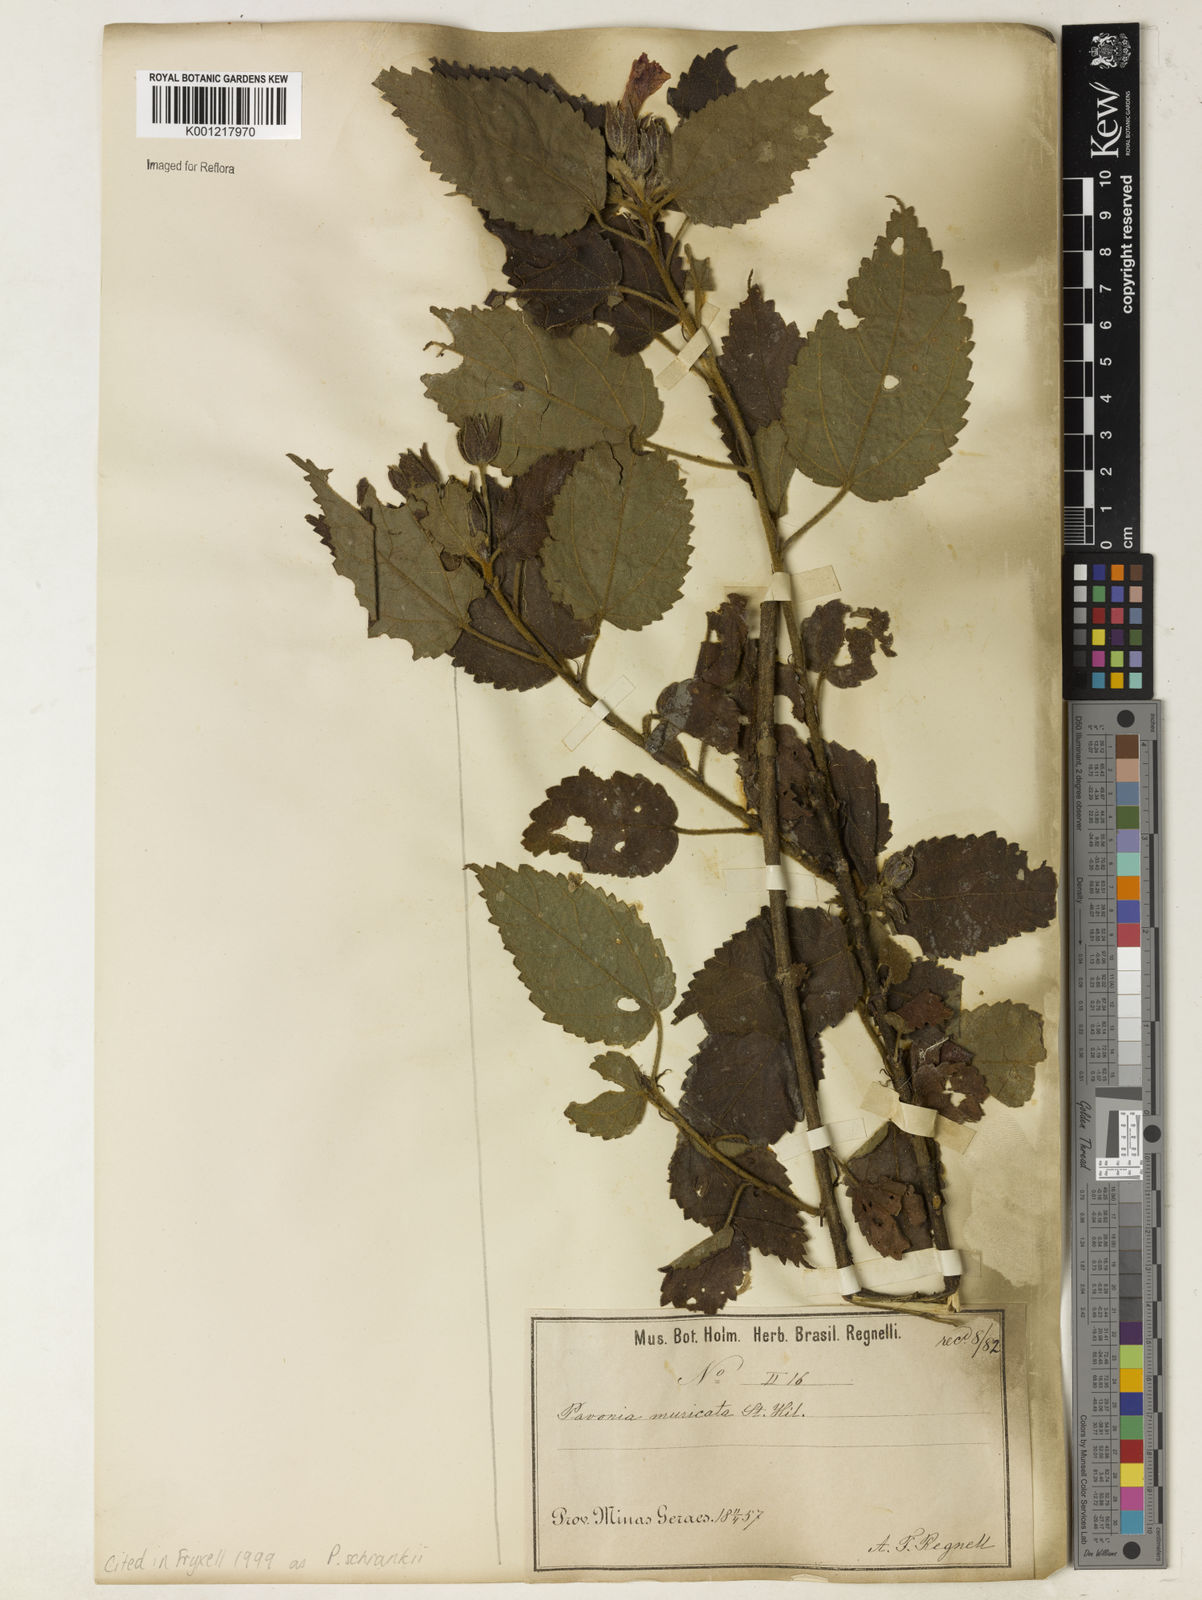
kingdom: Plantae
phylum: Tracheophyta
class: Magnoliopsida
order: Malvales
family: Malvaceae
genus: Pavonia
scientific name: Pavonia schrankii
